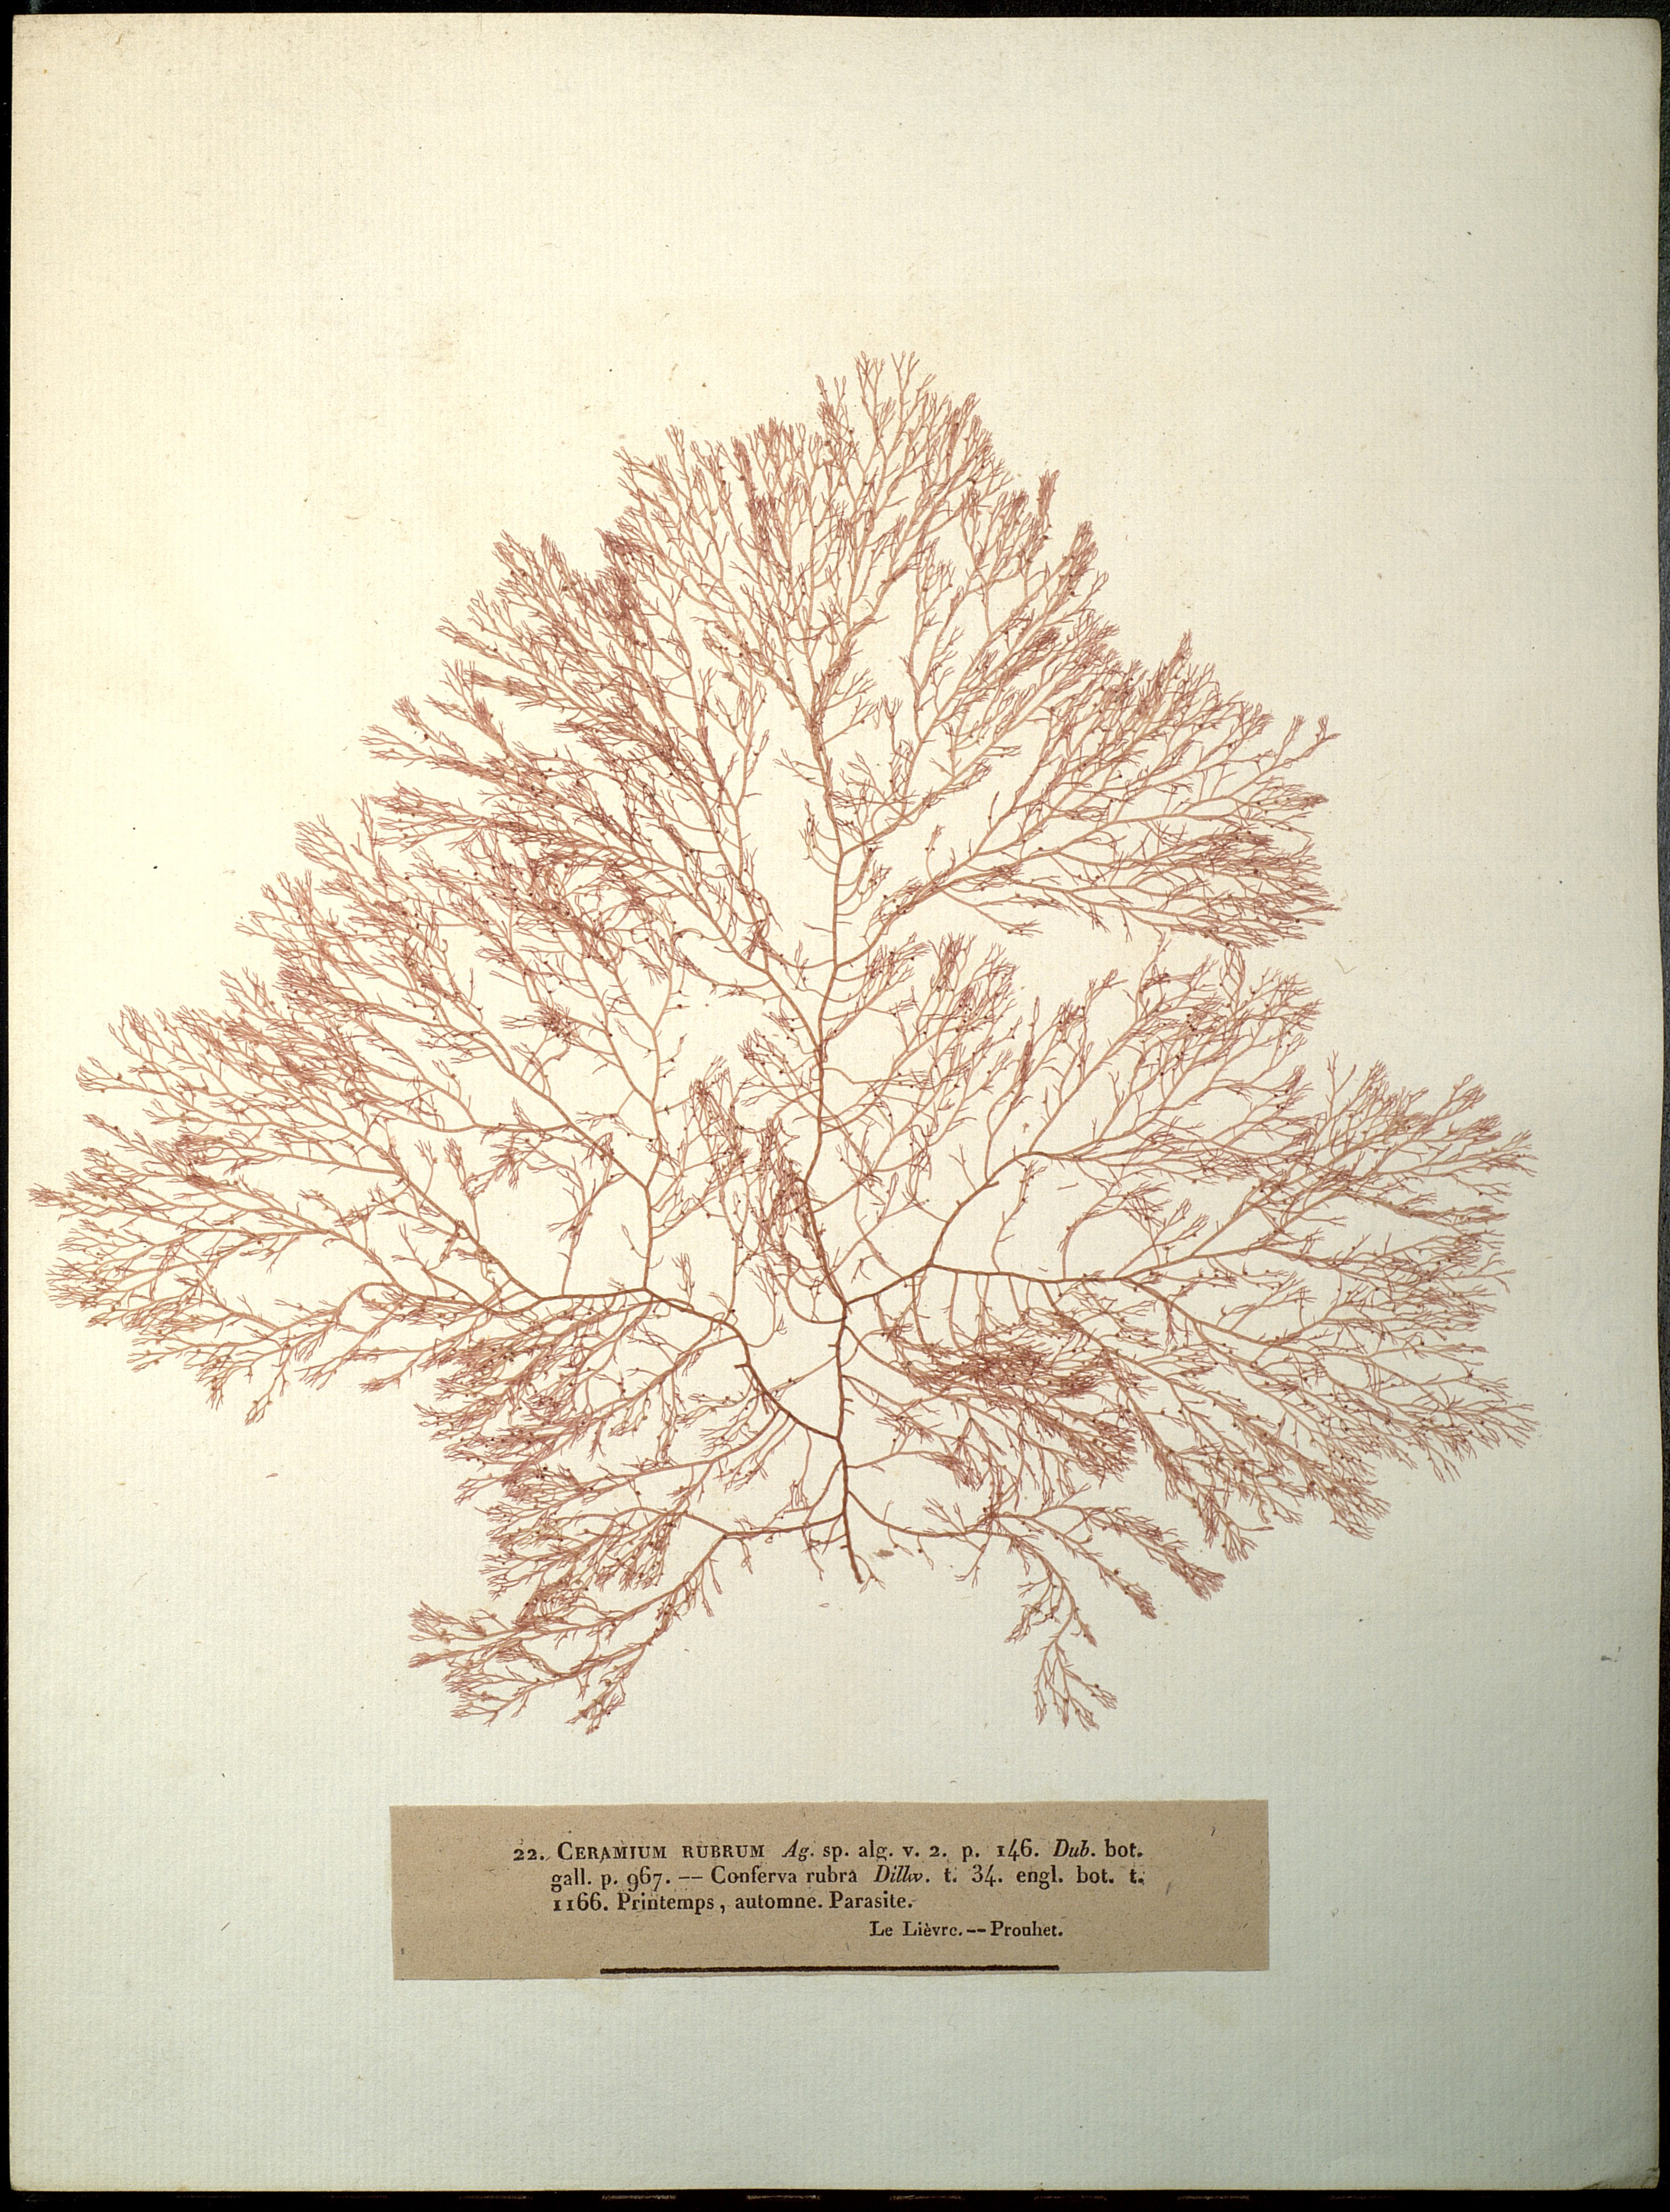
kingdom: Plantae
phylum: Rhodophyta
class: Florideophyceae
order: Ceramiales
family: Ceramiaceae
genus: Ceramium
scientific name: Ceramium rubrum
